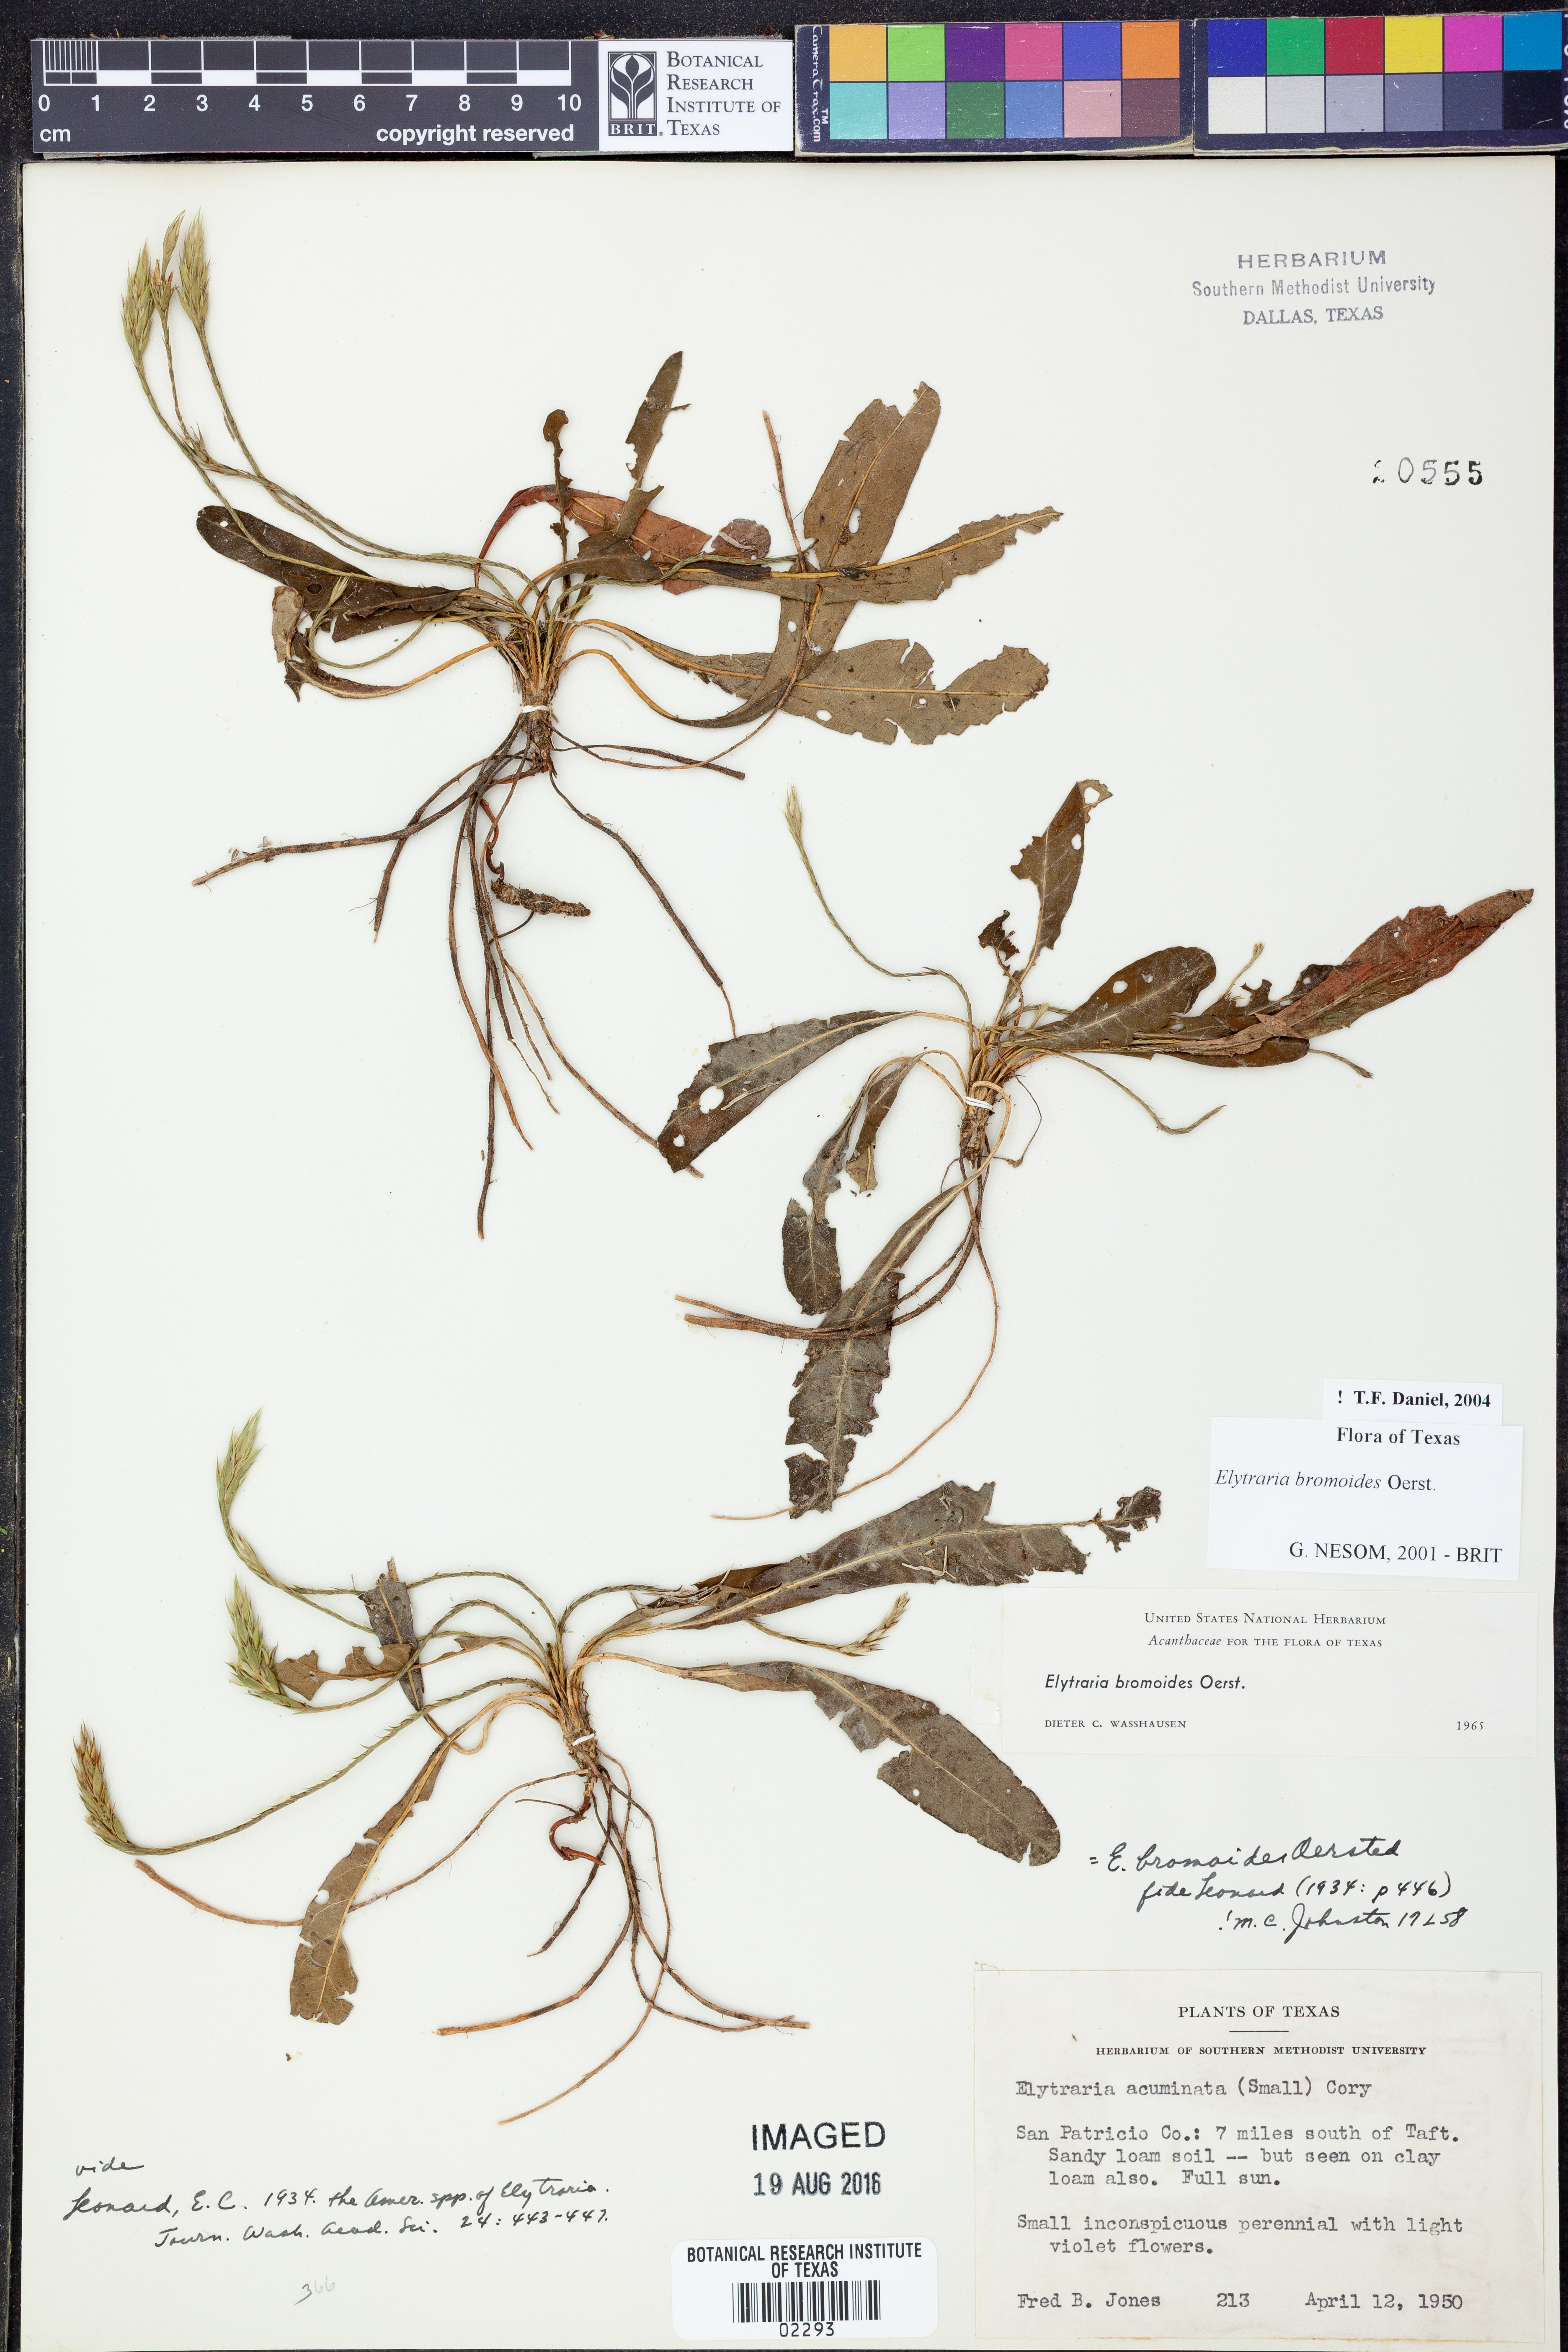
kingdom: Plantae
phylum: Tracheophyta
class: Magnoliopsida
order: Lamiales
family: Acanthaceae
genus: Elytraria
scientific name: Elytraria bromoides
